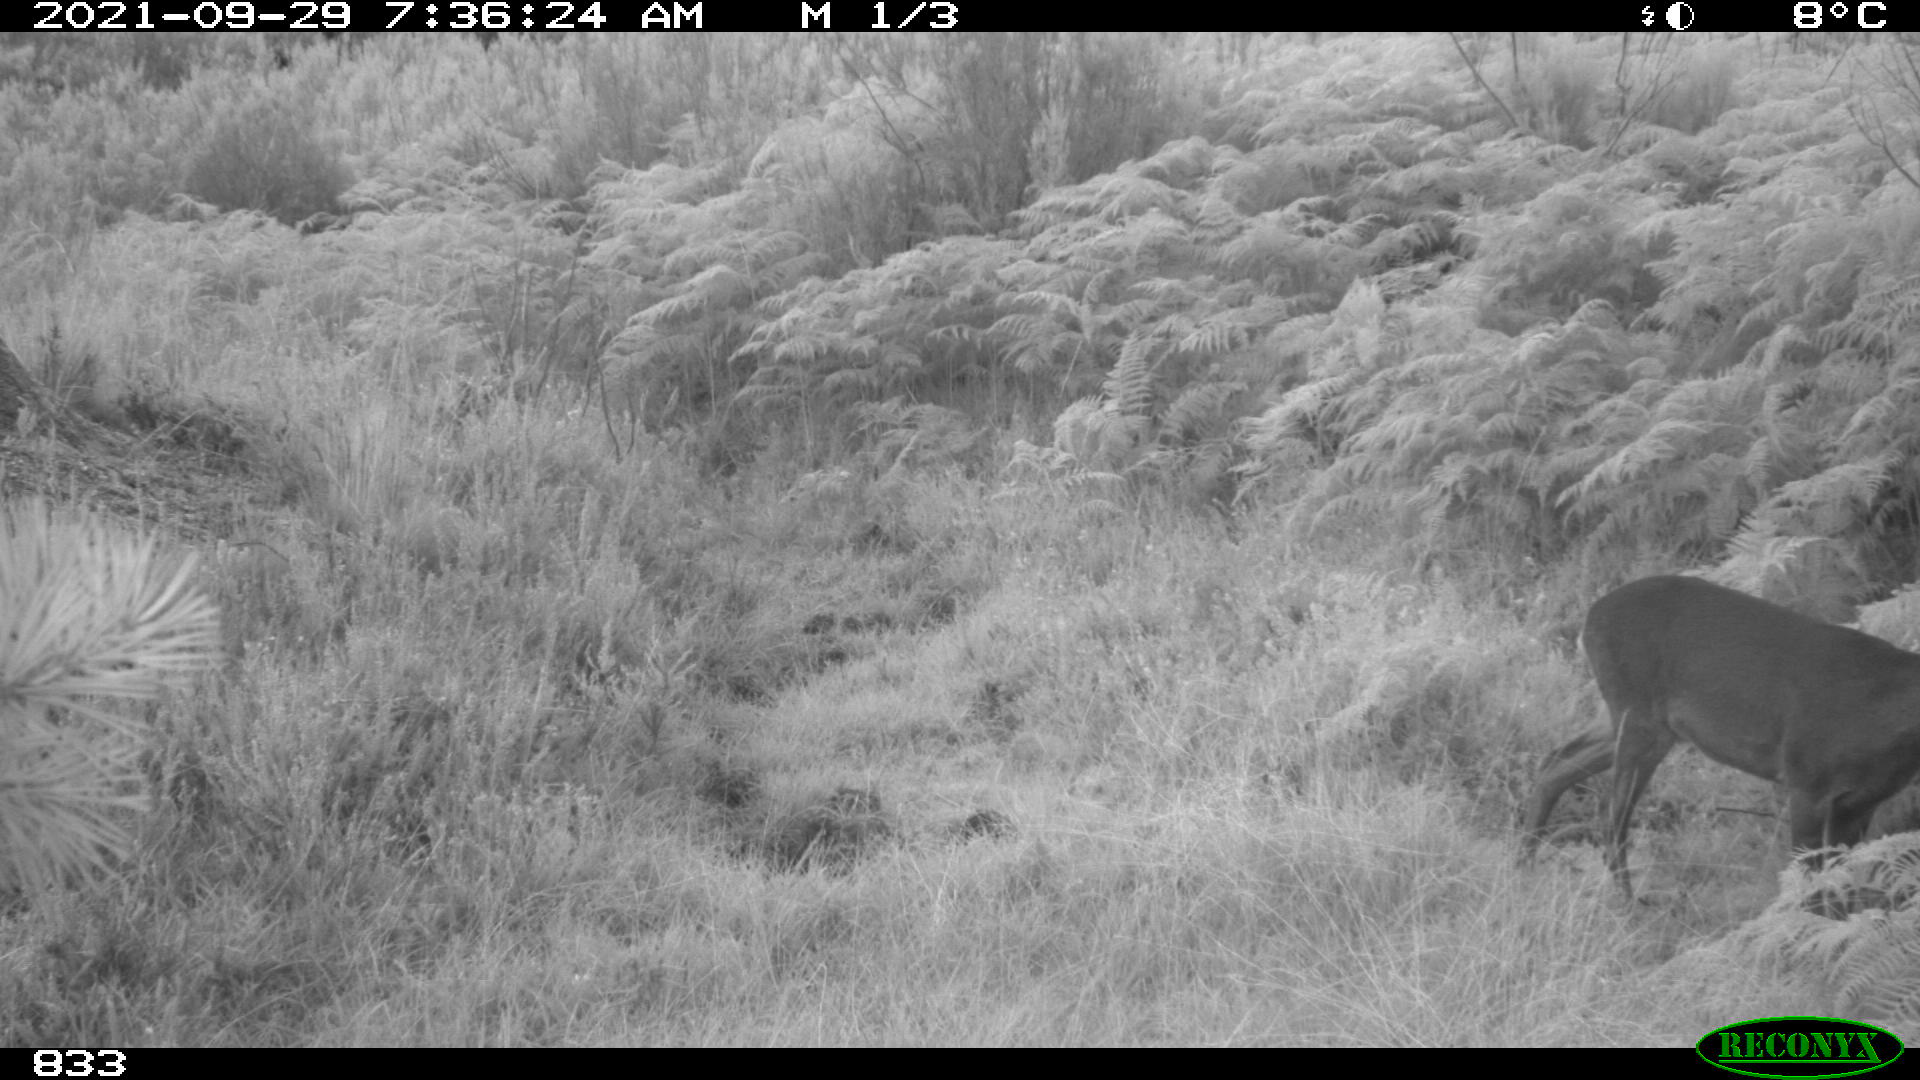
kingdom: Animalia
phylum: Chordata
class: Mammalia
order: Artiodactyla
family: Cervidae
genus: Capreolus
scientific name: Capreolus capreolus
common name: Western roe deer
